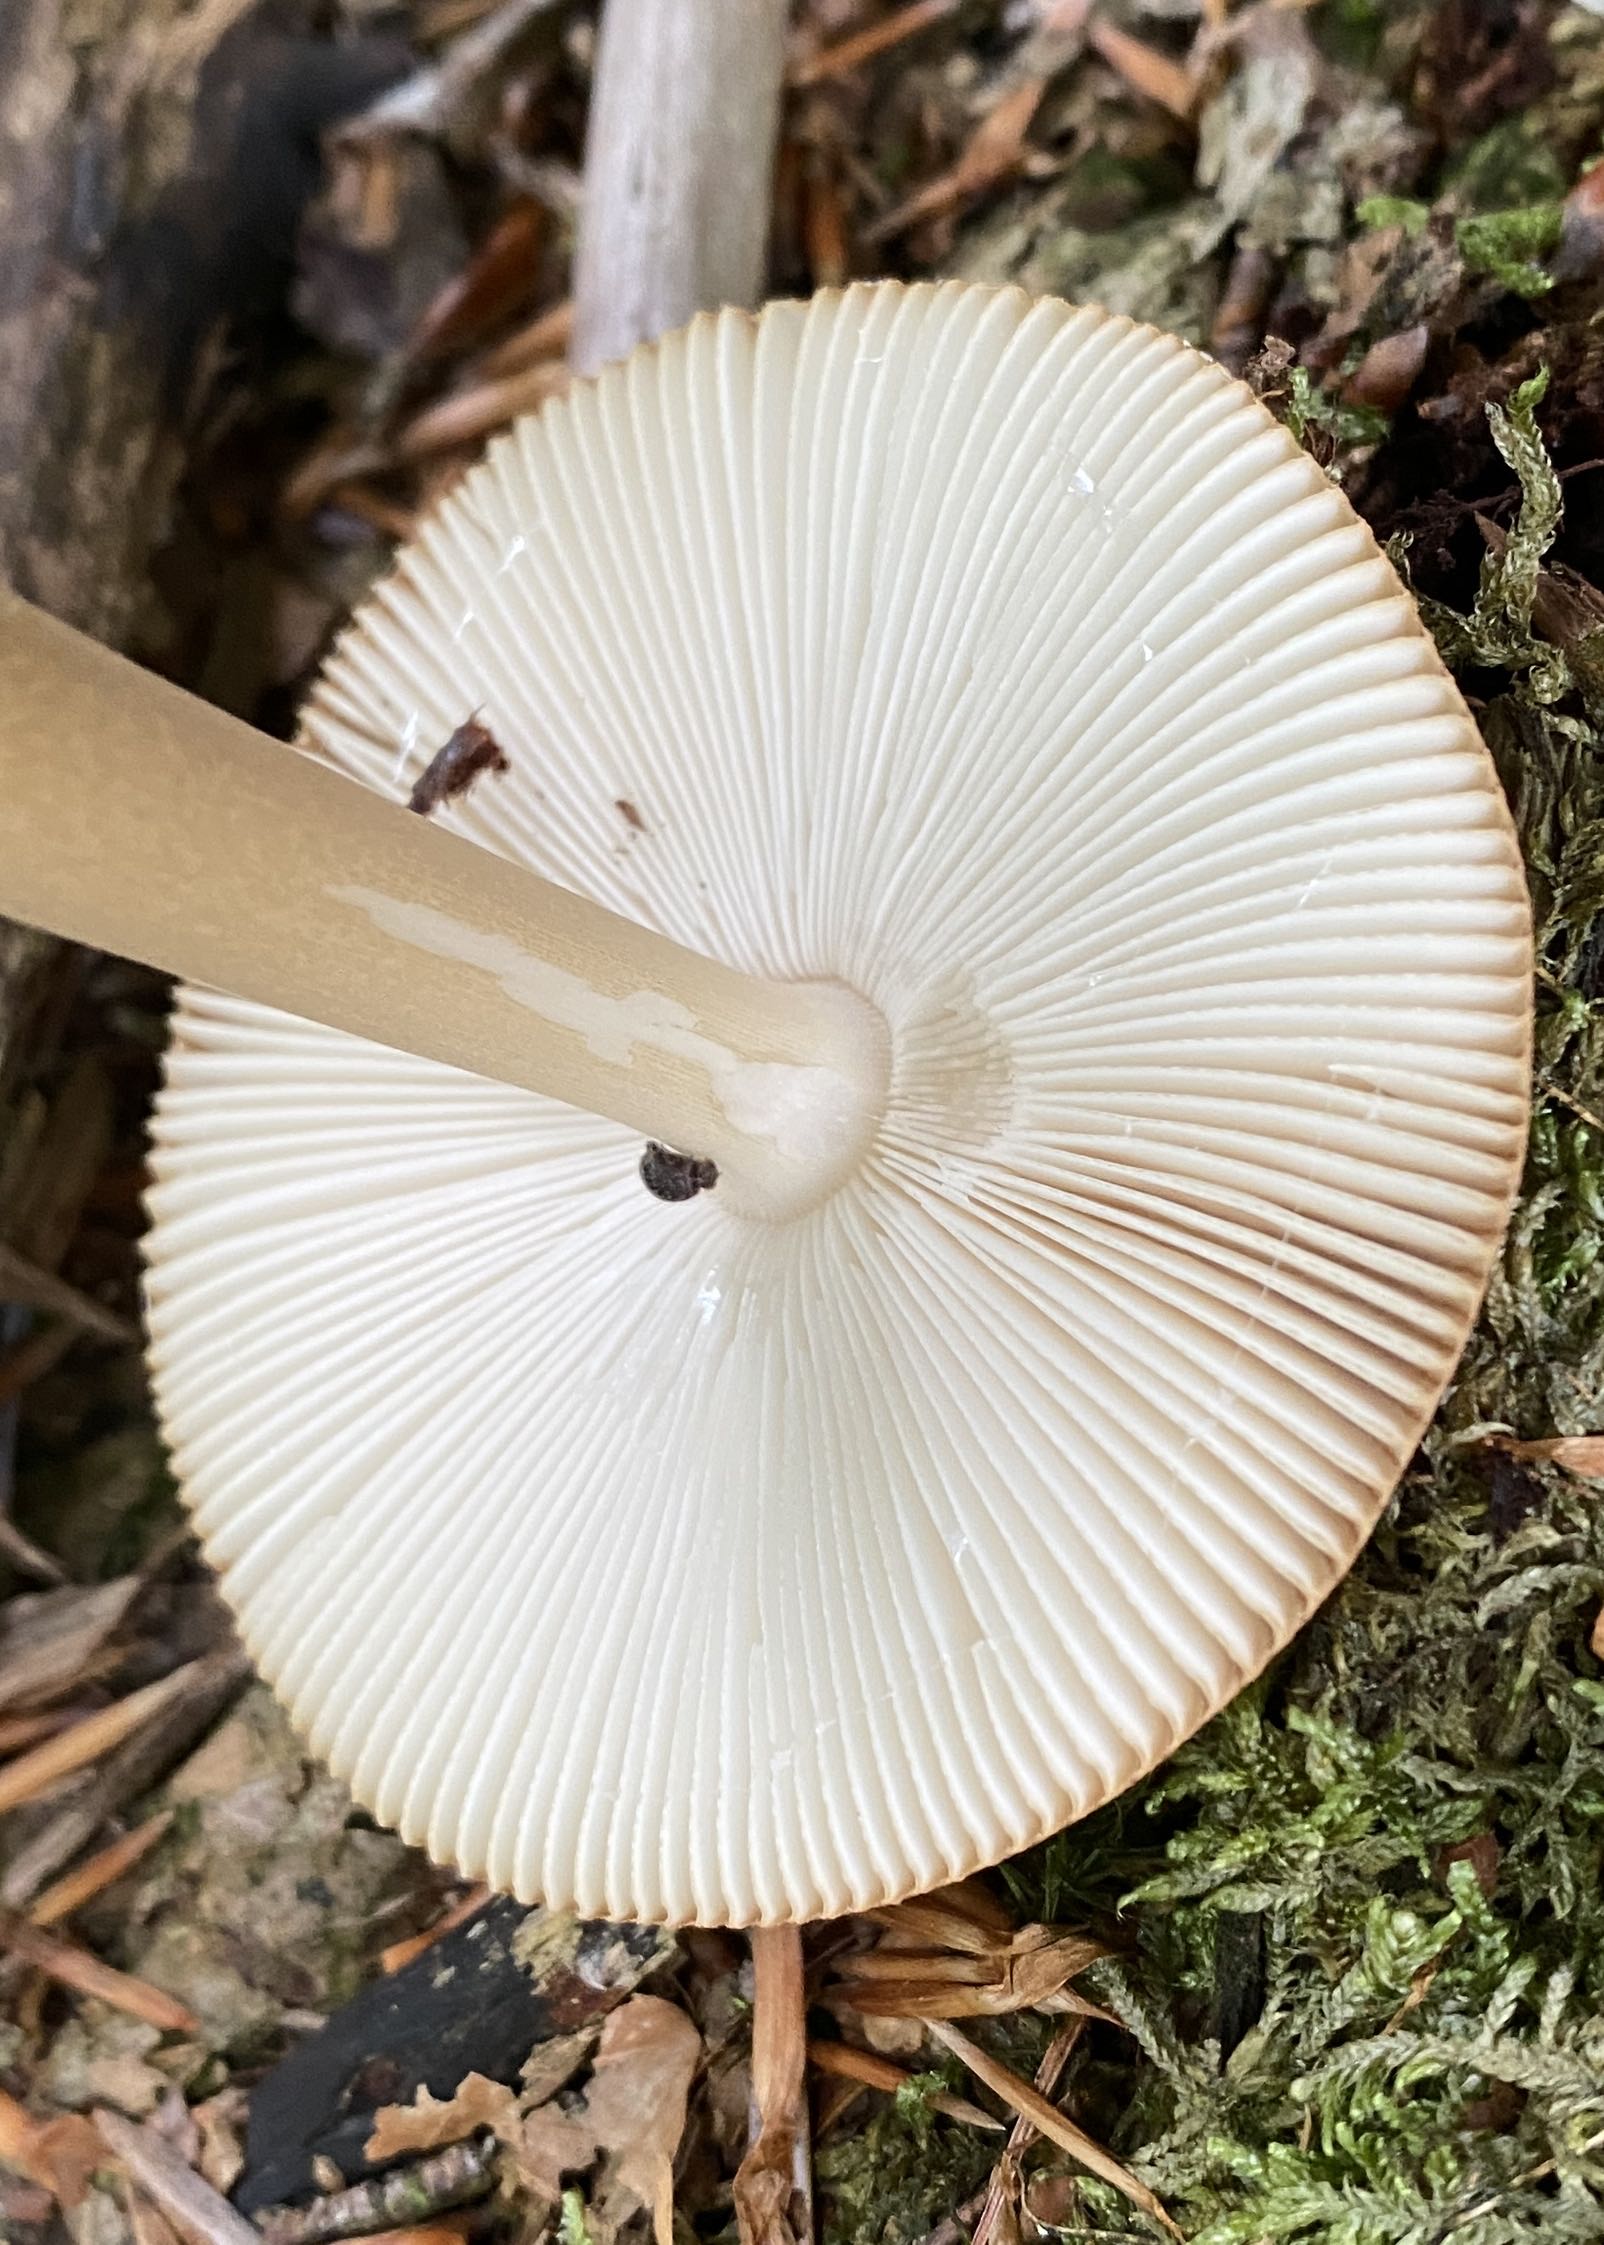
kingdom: Fungi
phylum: Basidiomycota
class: Agaricomycetes
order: Agaricales
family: Amanitaceae
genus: Amanita
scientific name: Amanita fulva
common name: brun kam-fluesvamp
